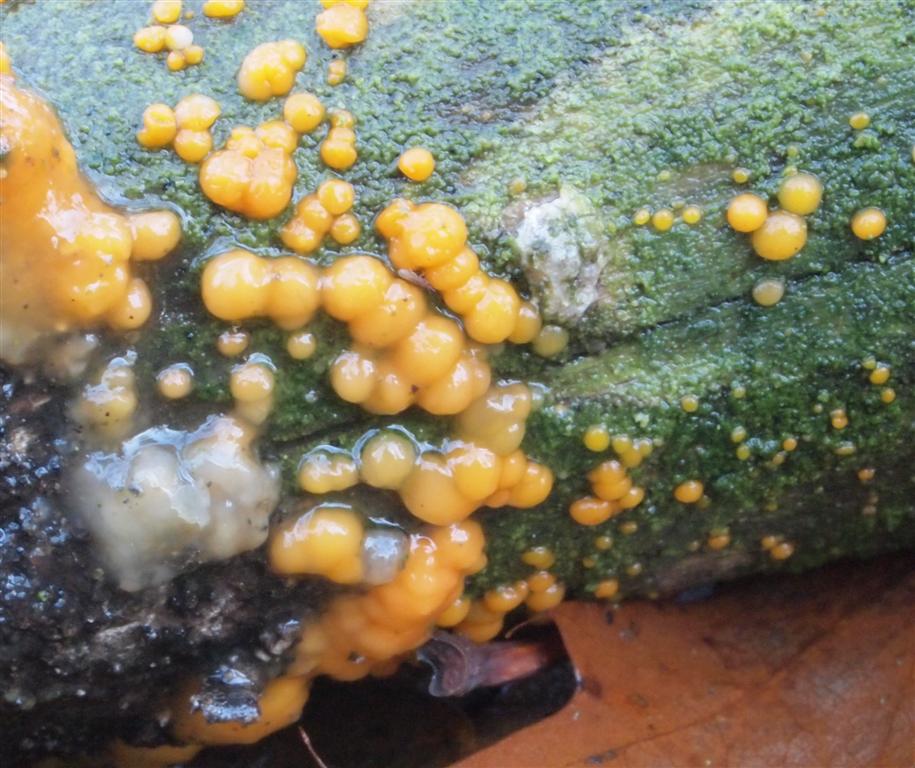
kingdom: Fungi
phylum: Basidiomycota
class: Dacrymycetes
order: Dacrymycetales
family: Dacrymycetaceae
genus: Dacrymyces
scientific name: Dacrymyces stillatus
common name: almindelig tåresvamp
